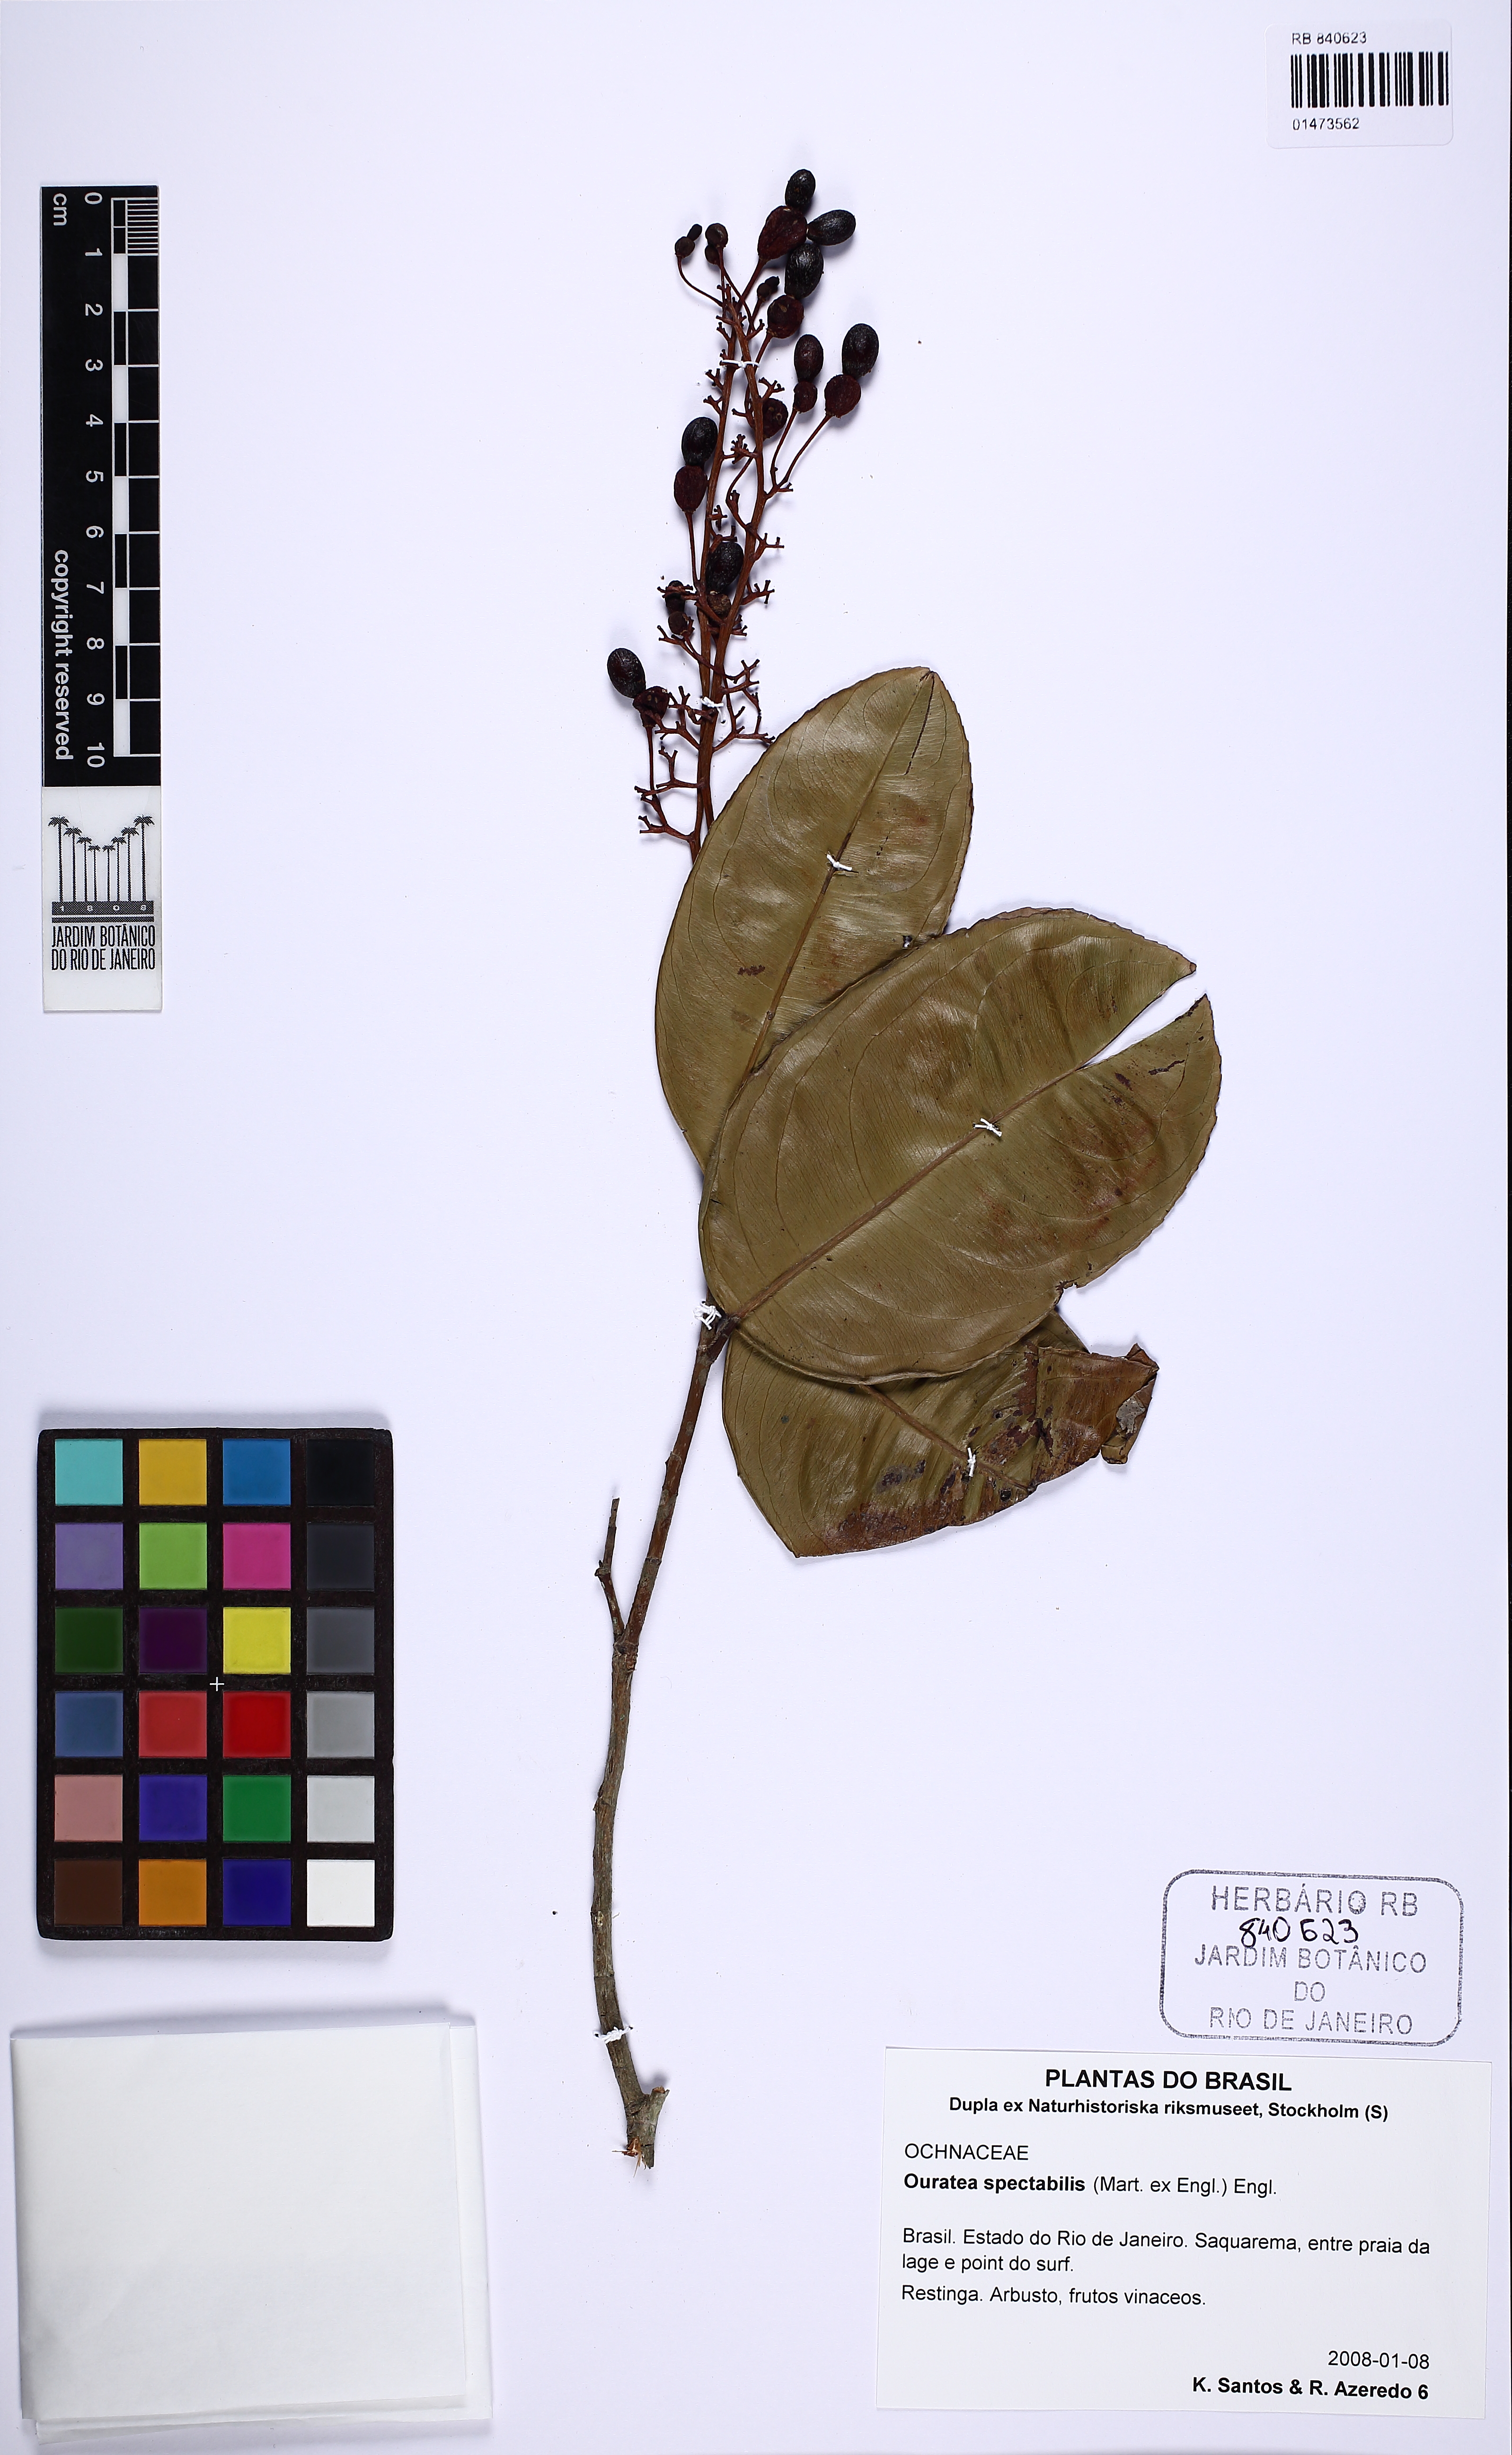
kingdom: Plantae
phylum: Tracheophyta
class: Magnoliopsida
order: Malpighiales
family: Ochnaceae
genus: Ouratea
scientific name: Ouratea spectabilis
